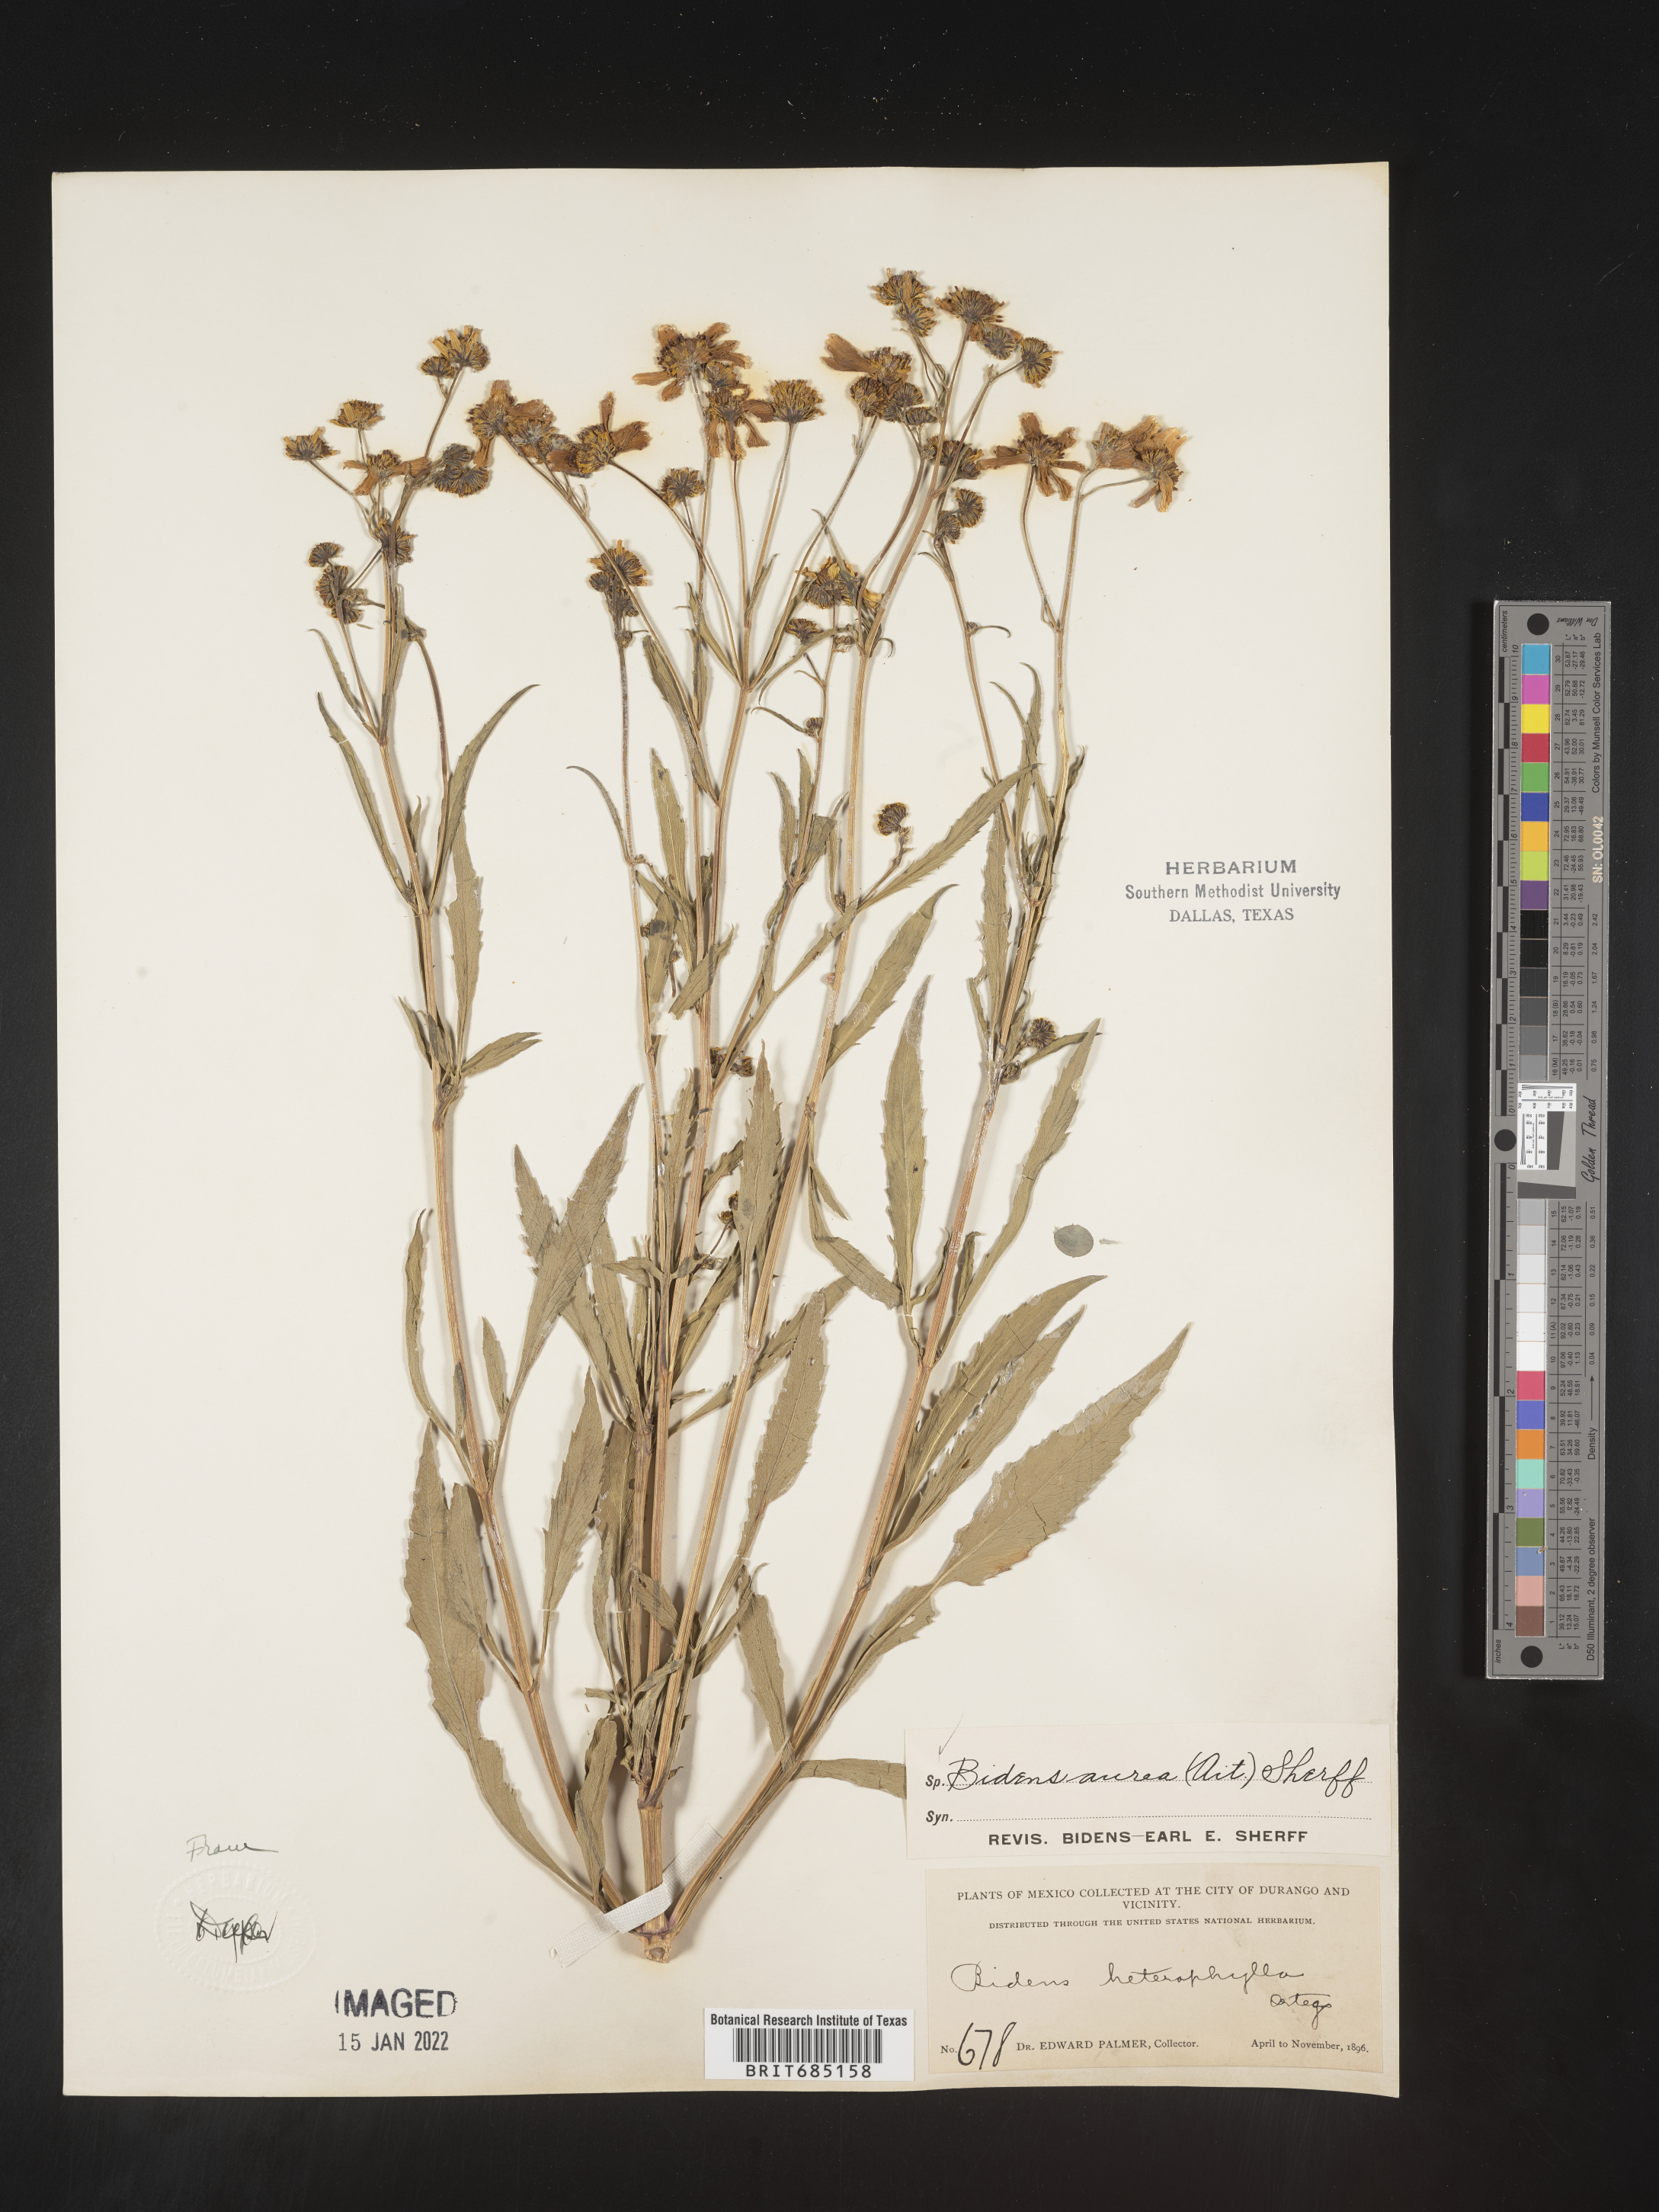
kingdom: Plantae
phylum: Tracheophyta
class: Magnoliopsida
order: Asterales
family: Asteraceae
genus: Bidens
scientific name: Bidens
